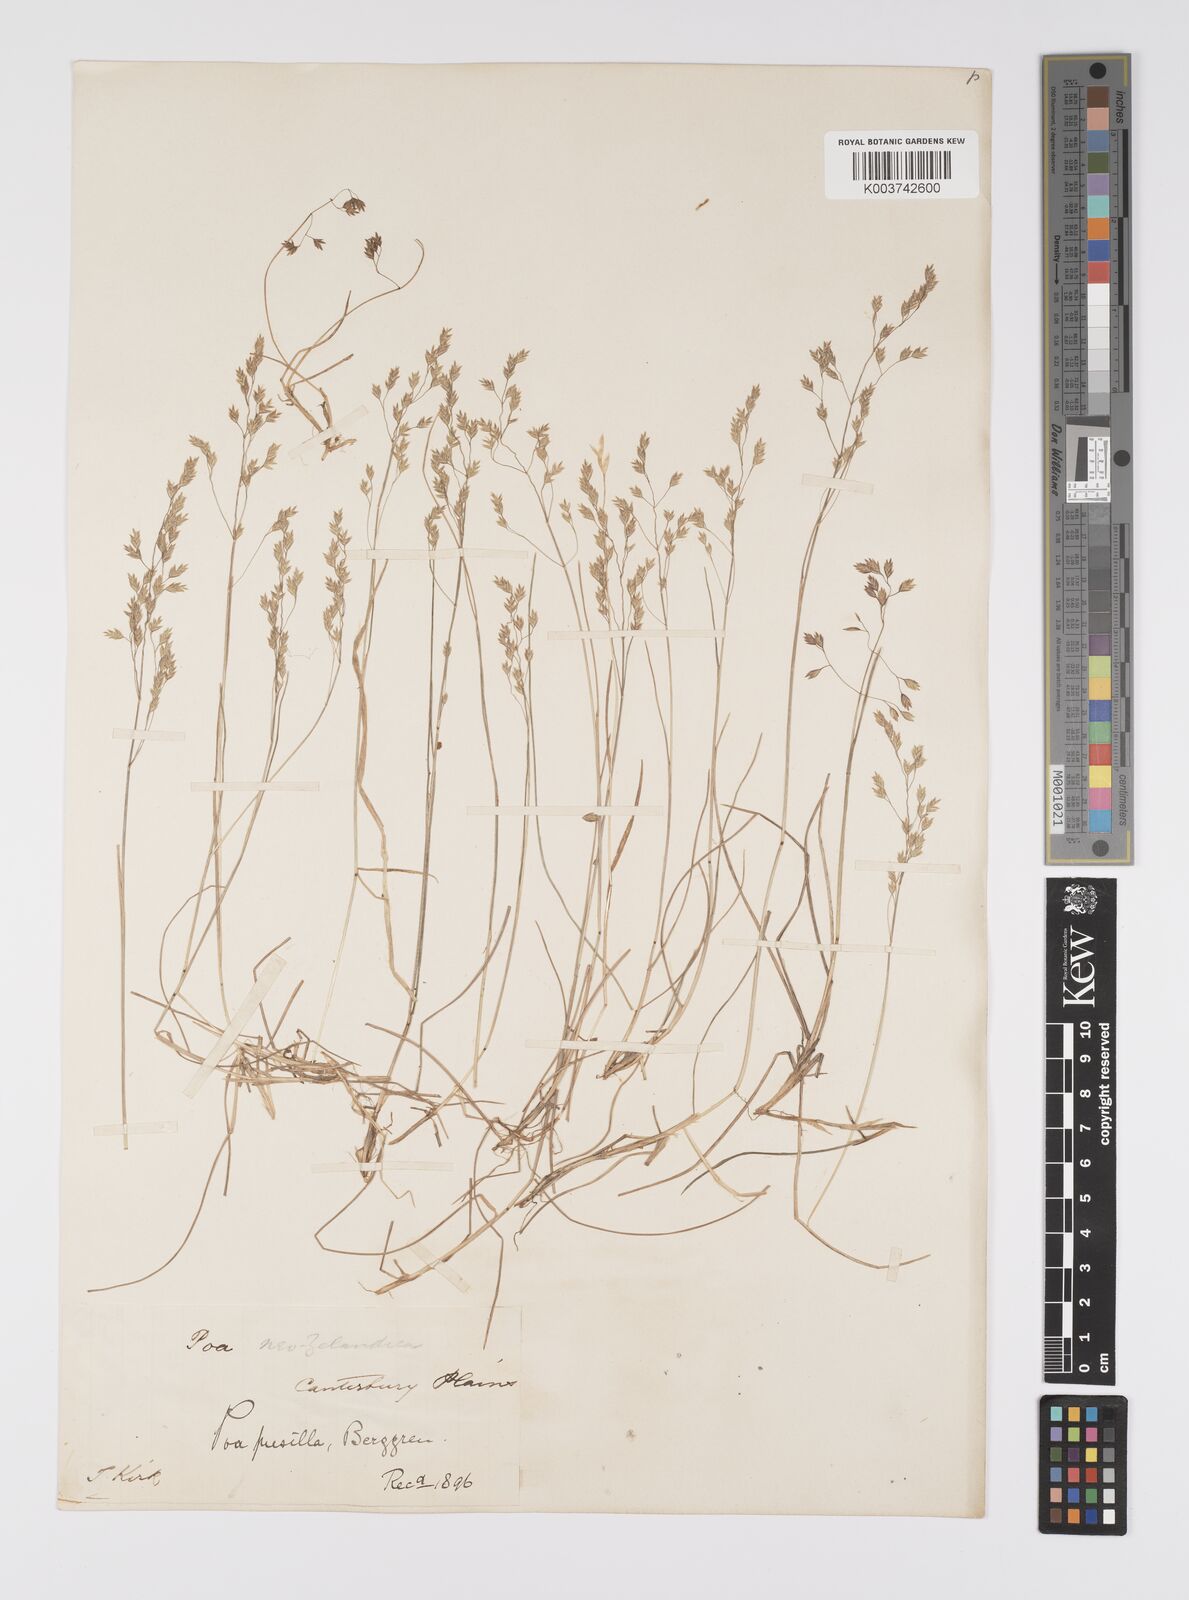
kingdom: Plantae
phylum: Tracheophyta
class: Liliopsida
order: Poales
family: Poaceae
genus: Poa
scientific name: Poa anceps
